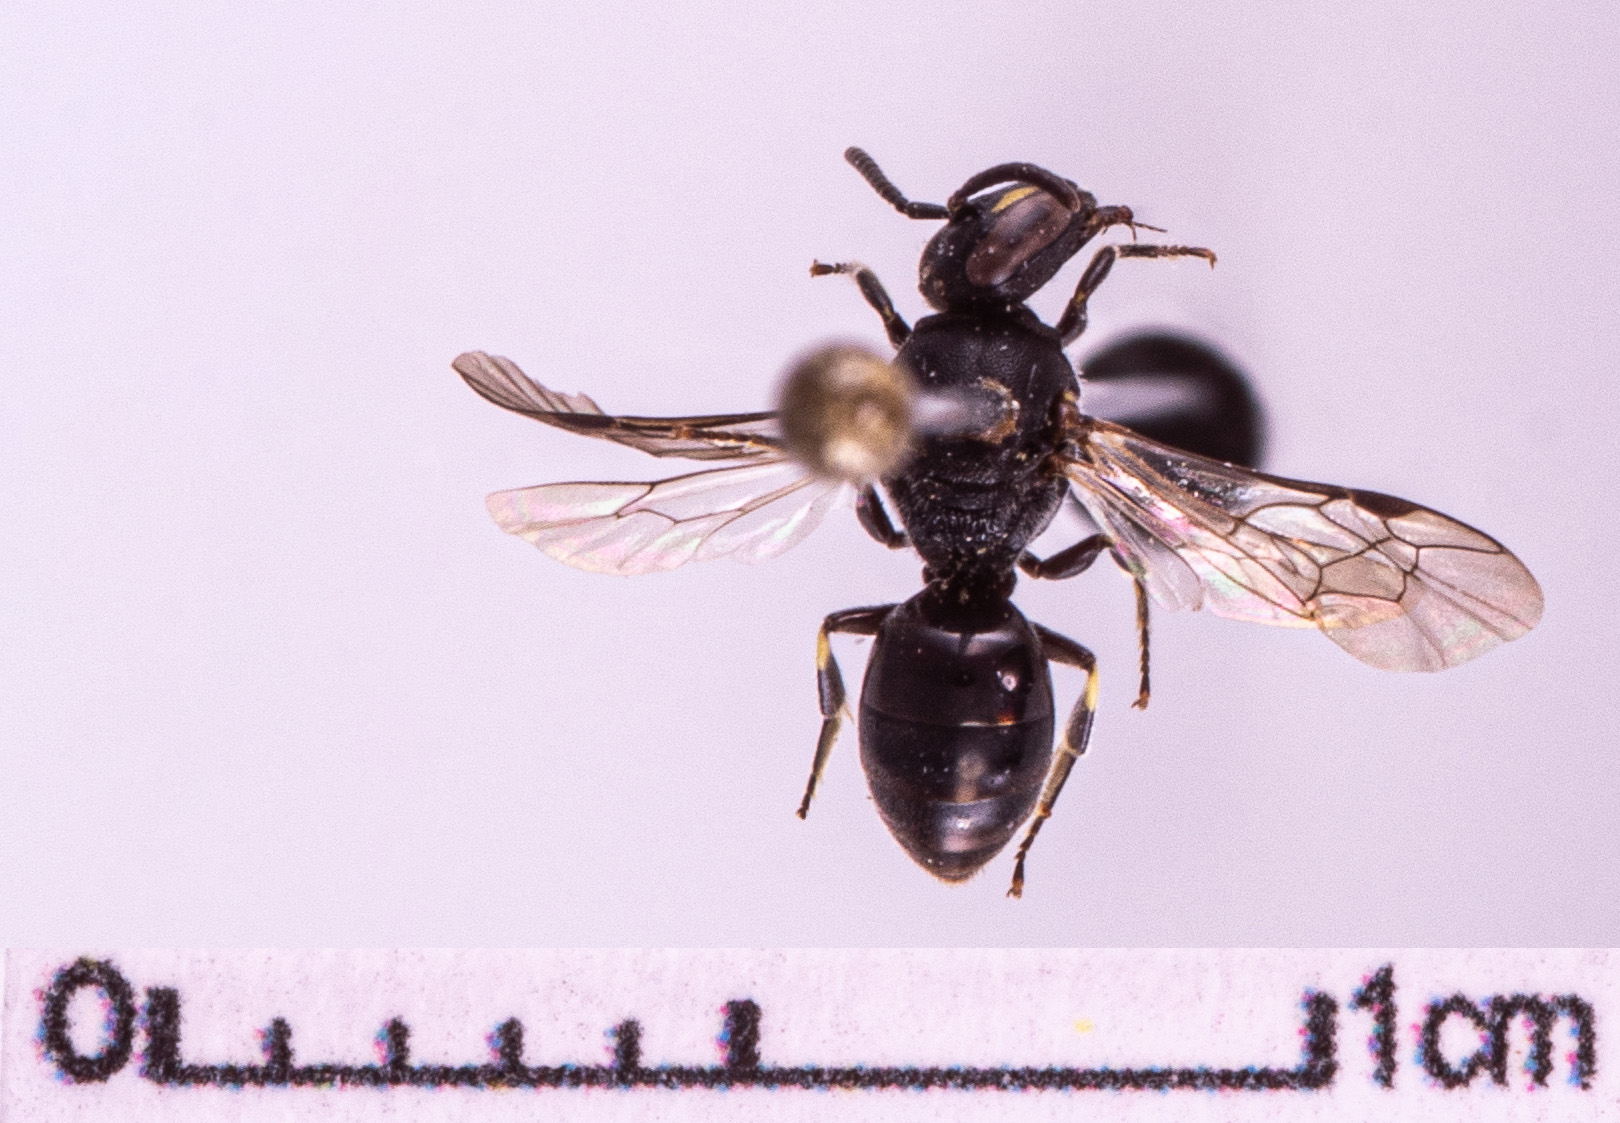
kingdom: Animalia
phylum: Arthropoda
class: Insecta
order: Hymenoptera
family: Colletidae
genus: Hylaeus
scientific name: Hylaeus communis
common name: Common yellow-face bee
